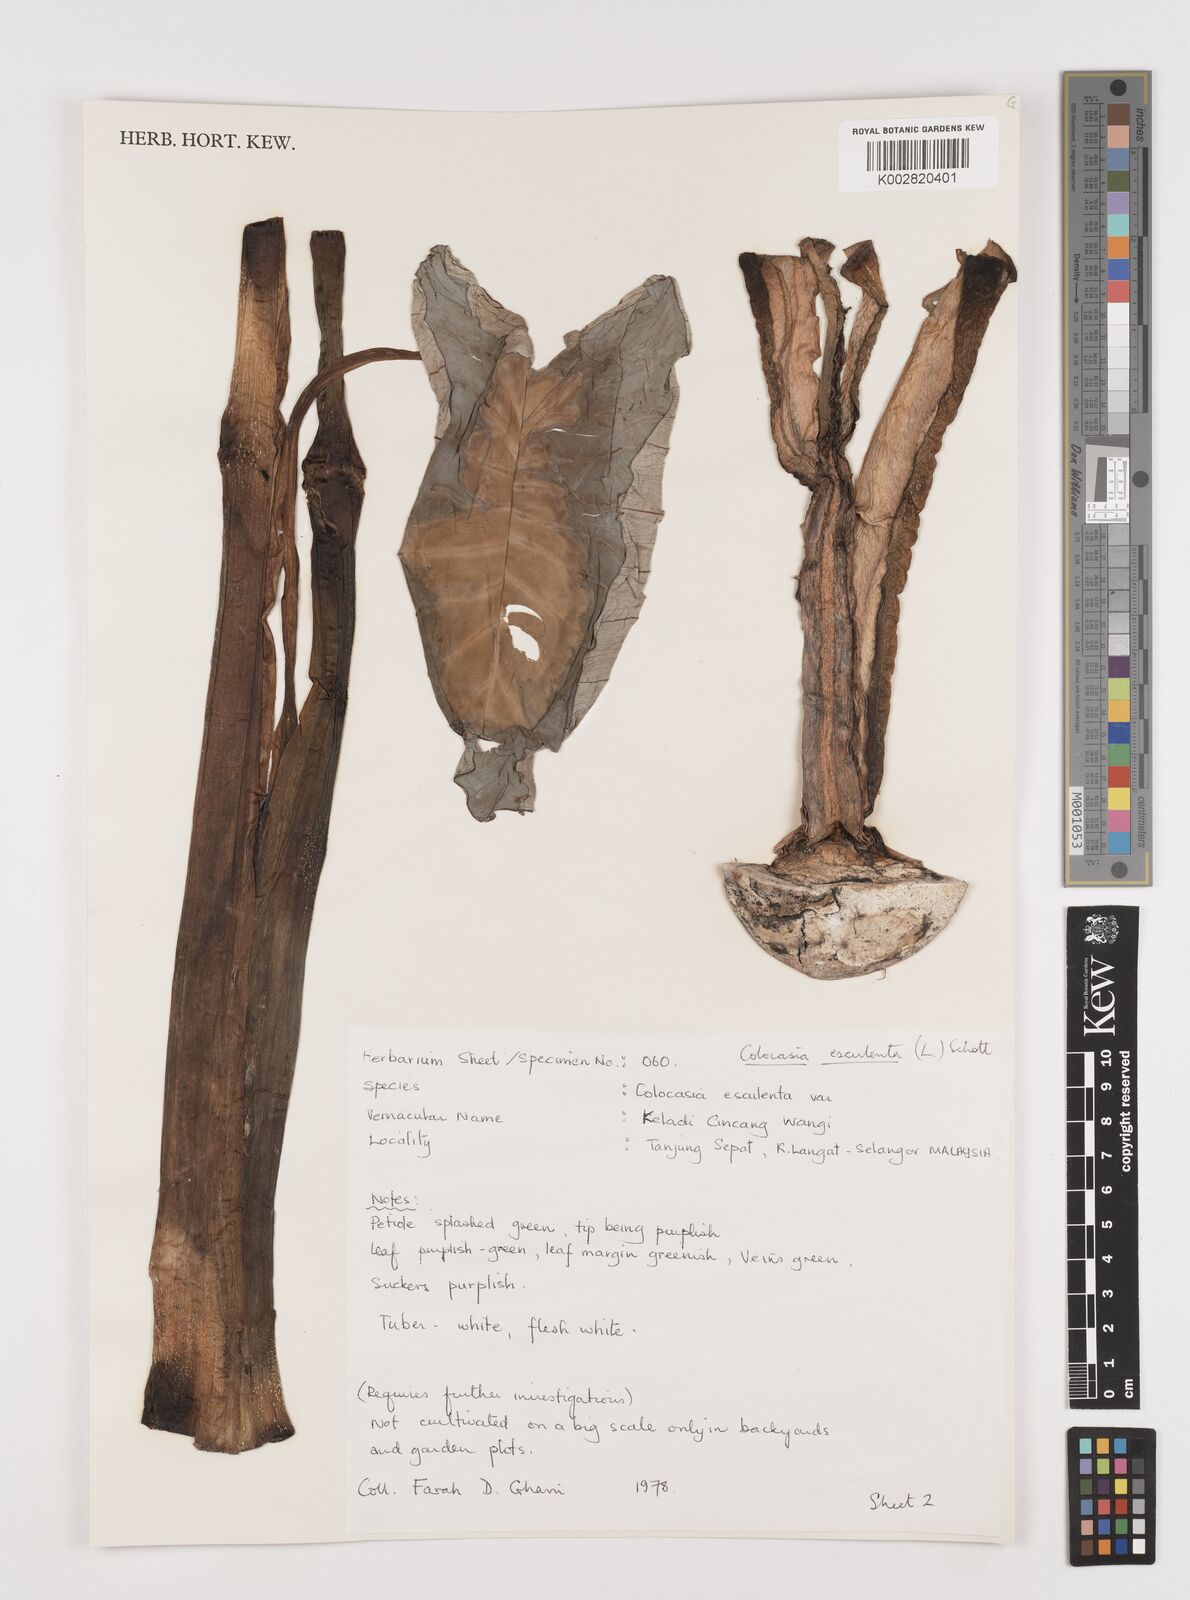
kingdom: Plantae
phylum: Tracheophyta
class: Liliopsida
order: Alismatales
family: Araceae
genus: Colocasia
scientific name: Colocasia esculenta
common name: Taro
